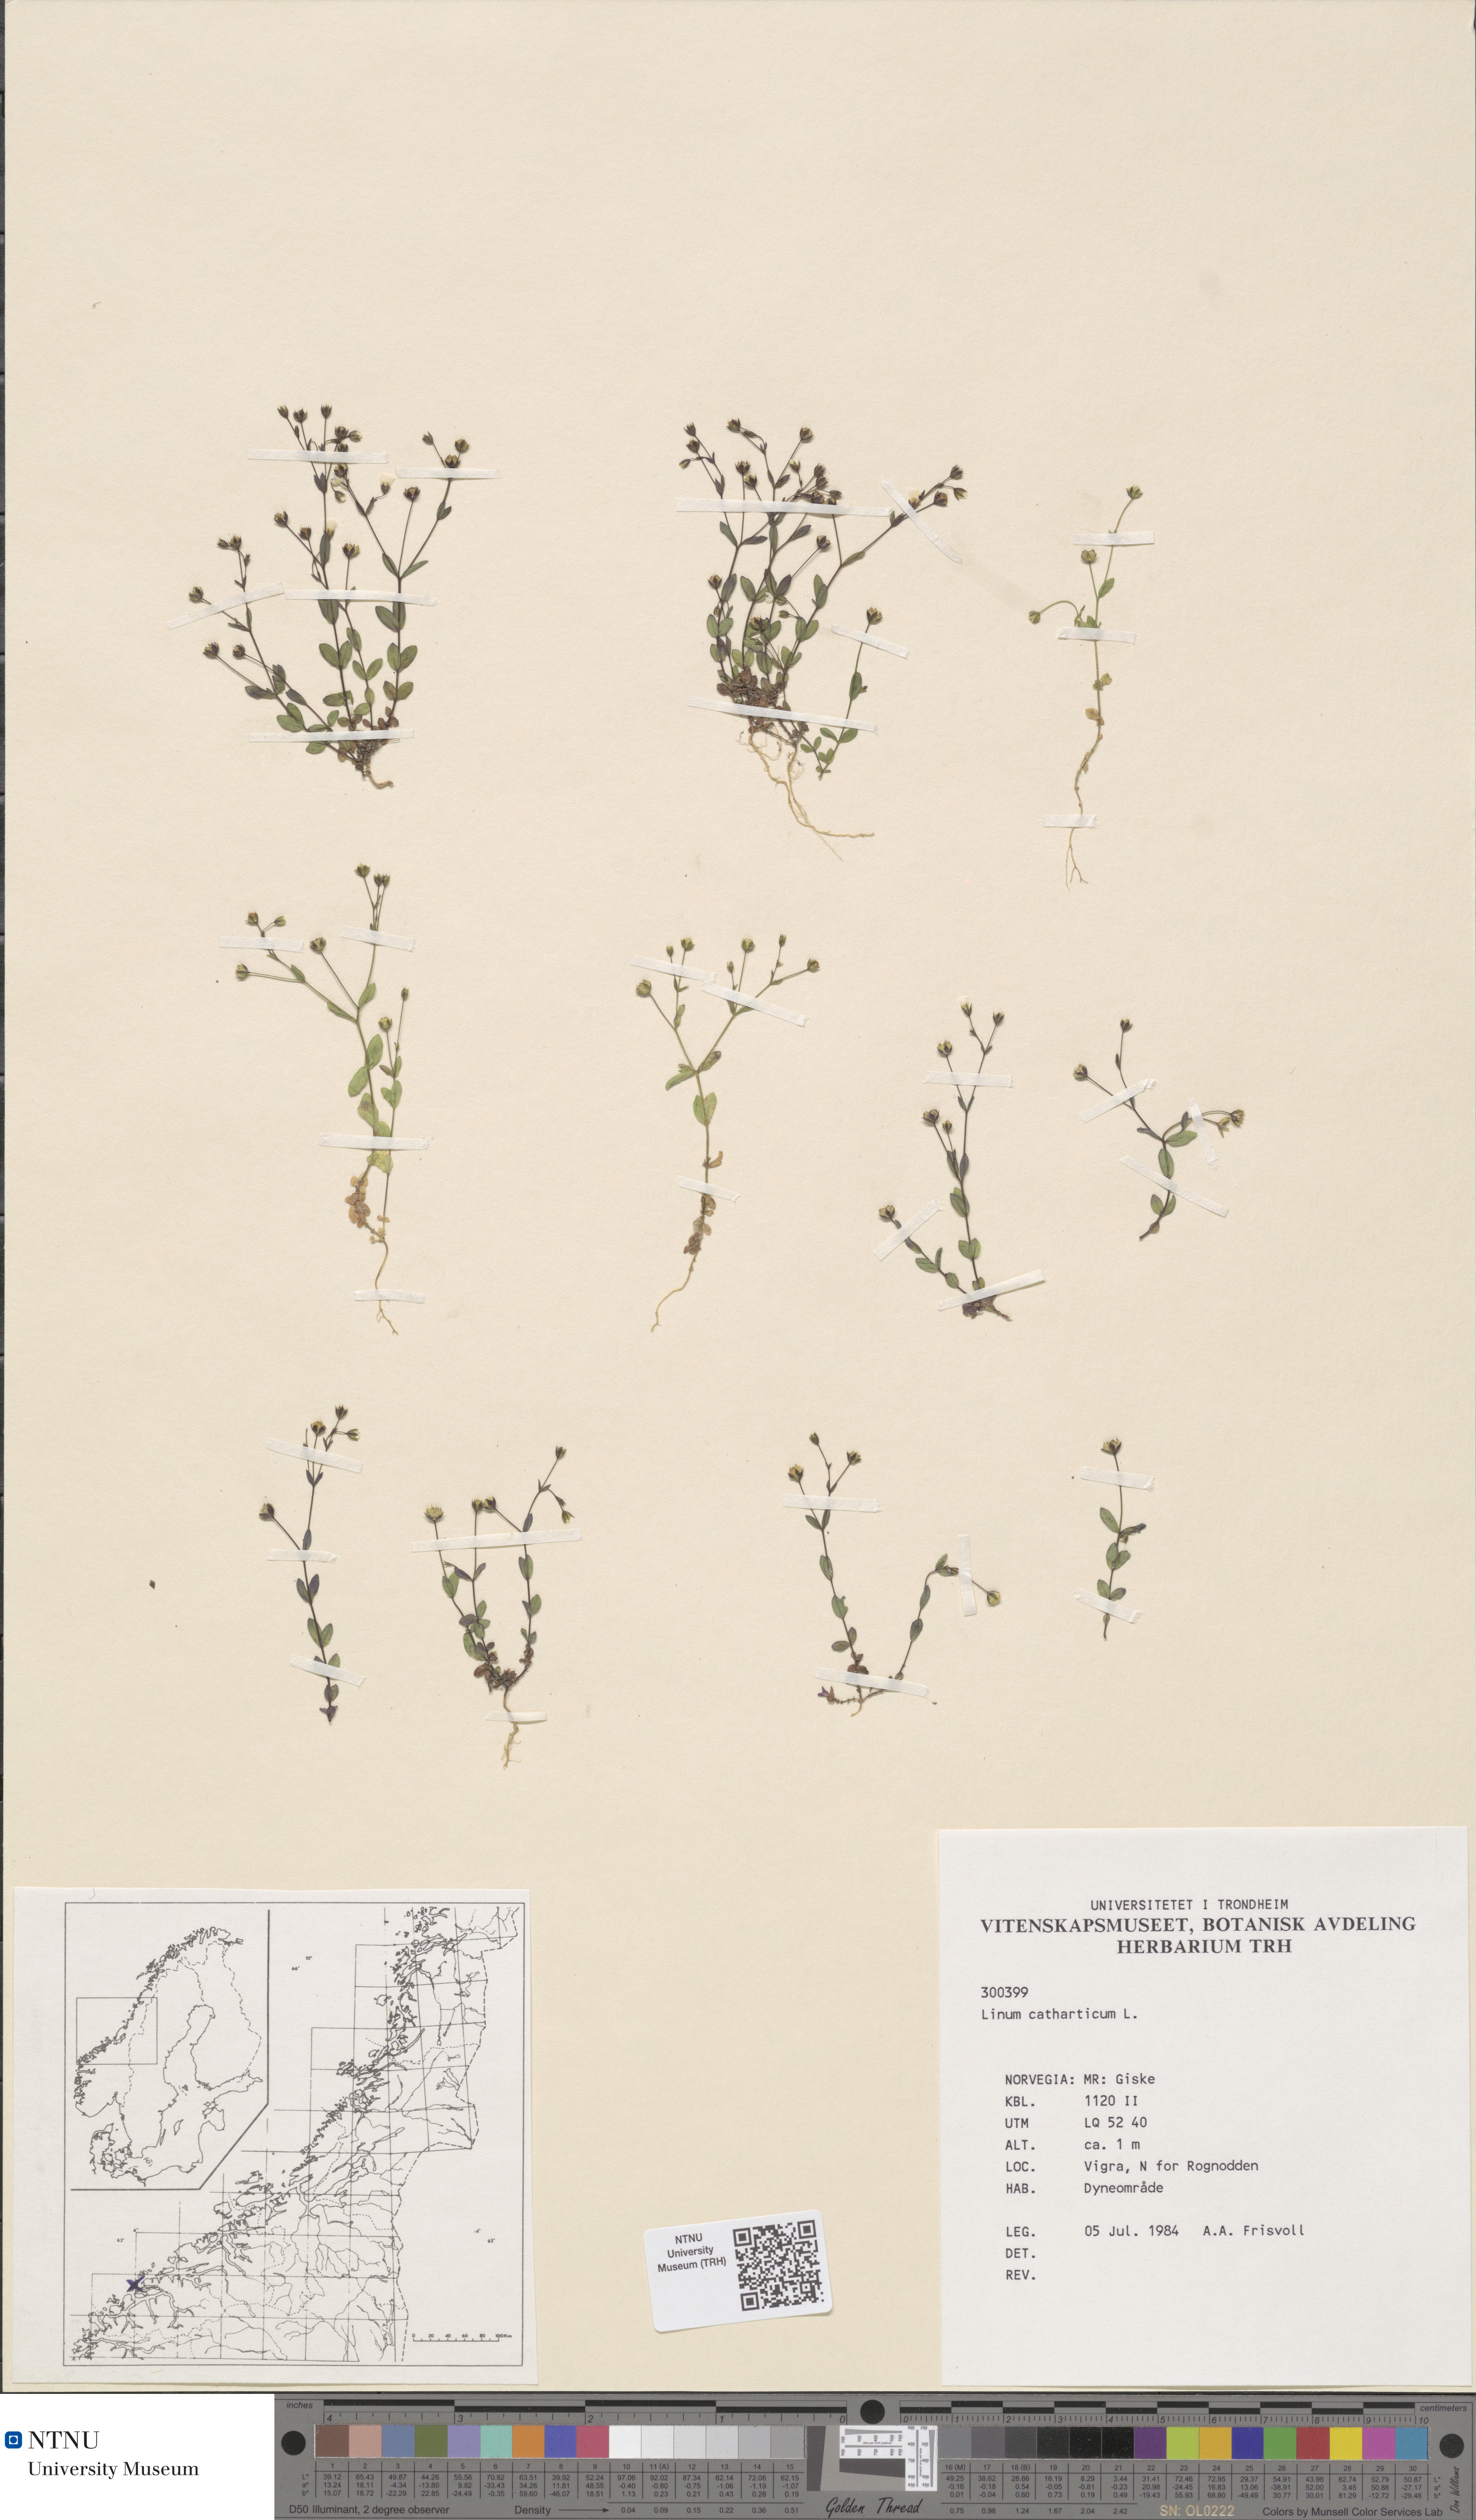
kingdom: Plantae
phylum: Tracheophyta
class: Magnoliopsida
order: Malpighiales
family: Linaceae
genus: Linum
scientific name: Linum catharticum
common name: Fairy flax
